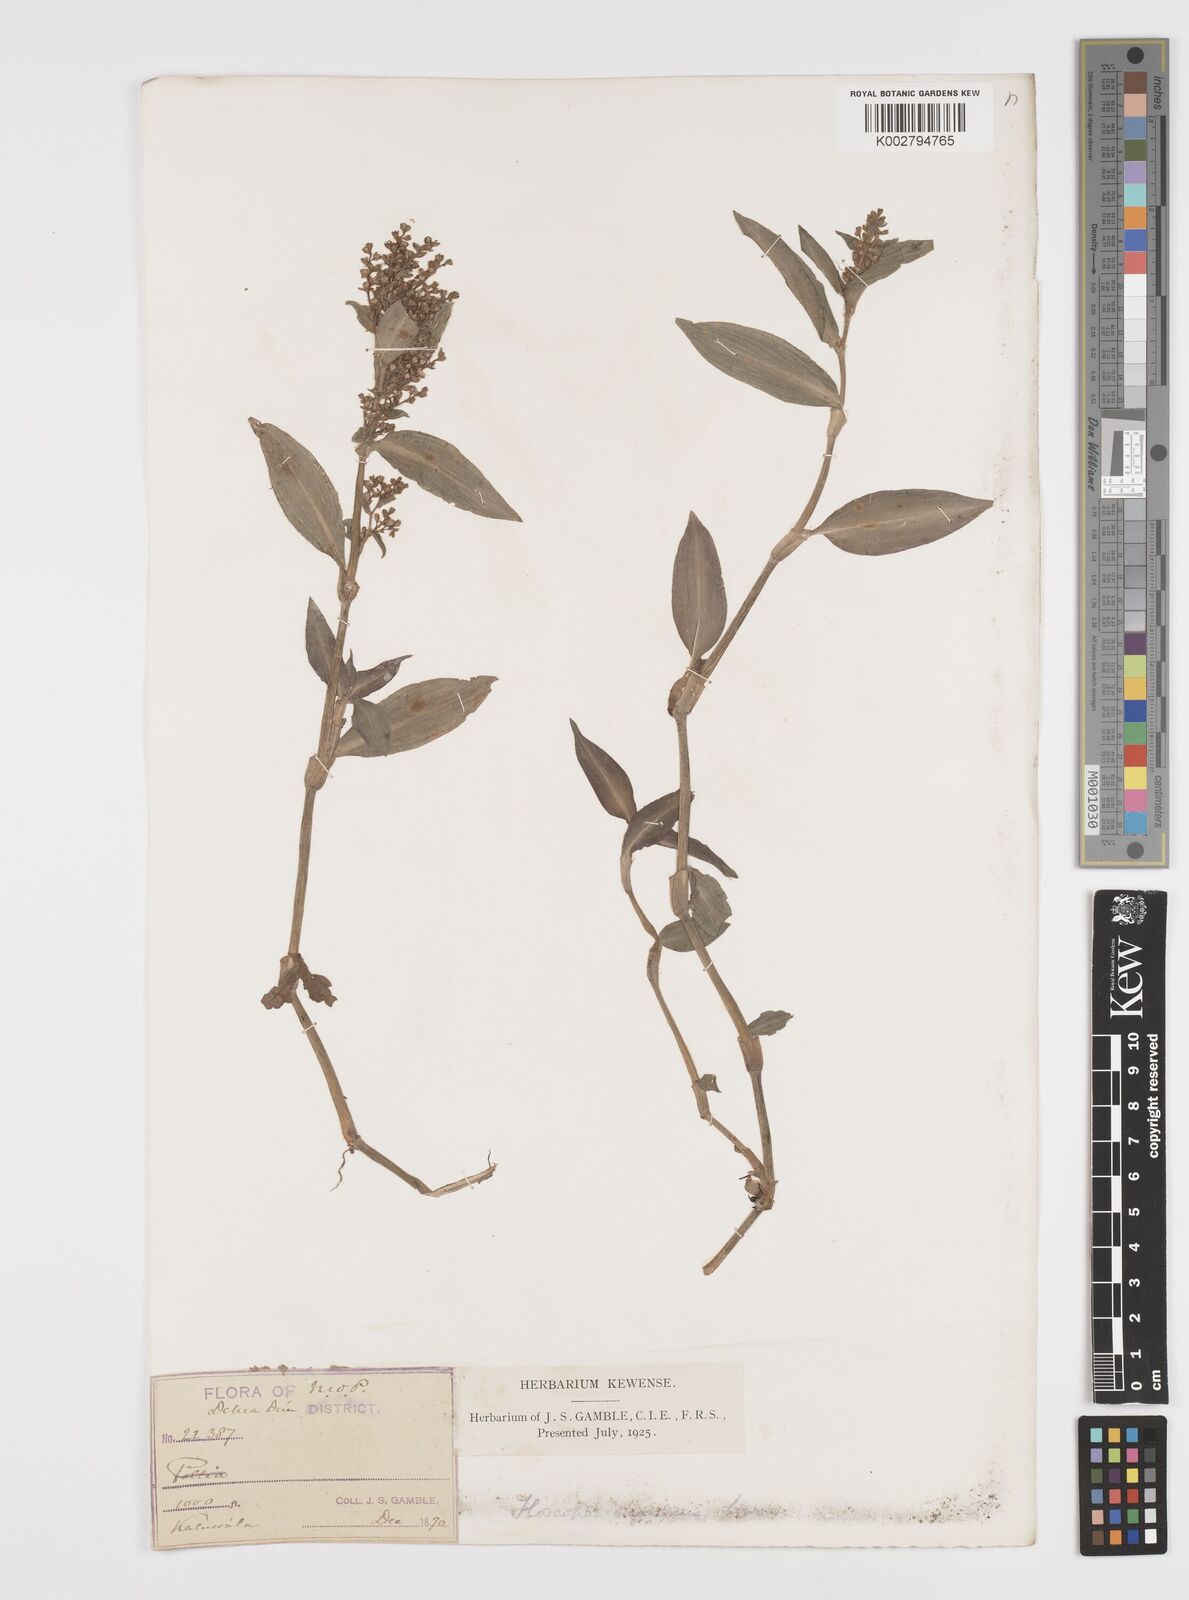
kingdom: Plantae
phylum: Tracheophyta
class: Liliopsida
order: Commelinales
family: Commelinaceae
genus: Floscopa
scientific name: Floscopa scandens
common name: Climbing flower cup
